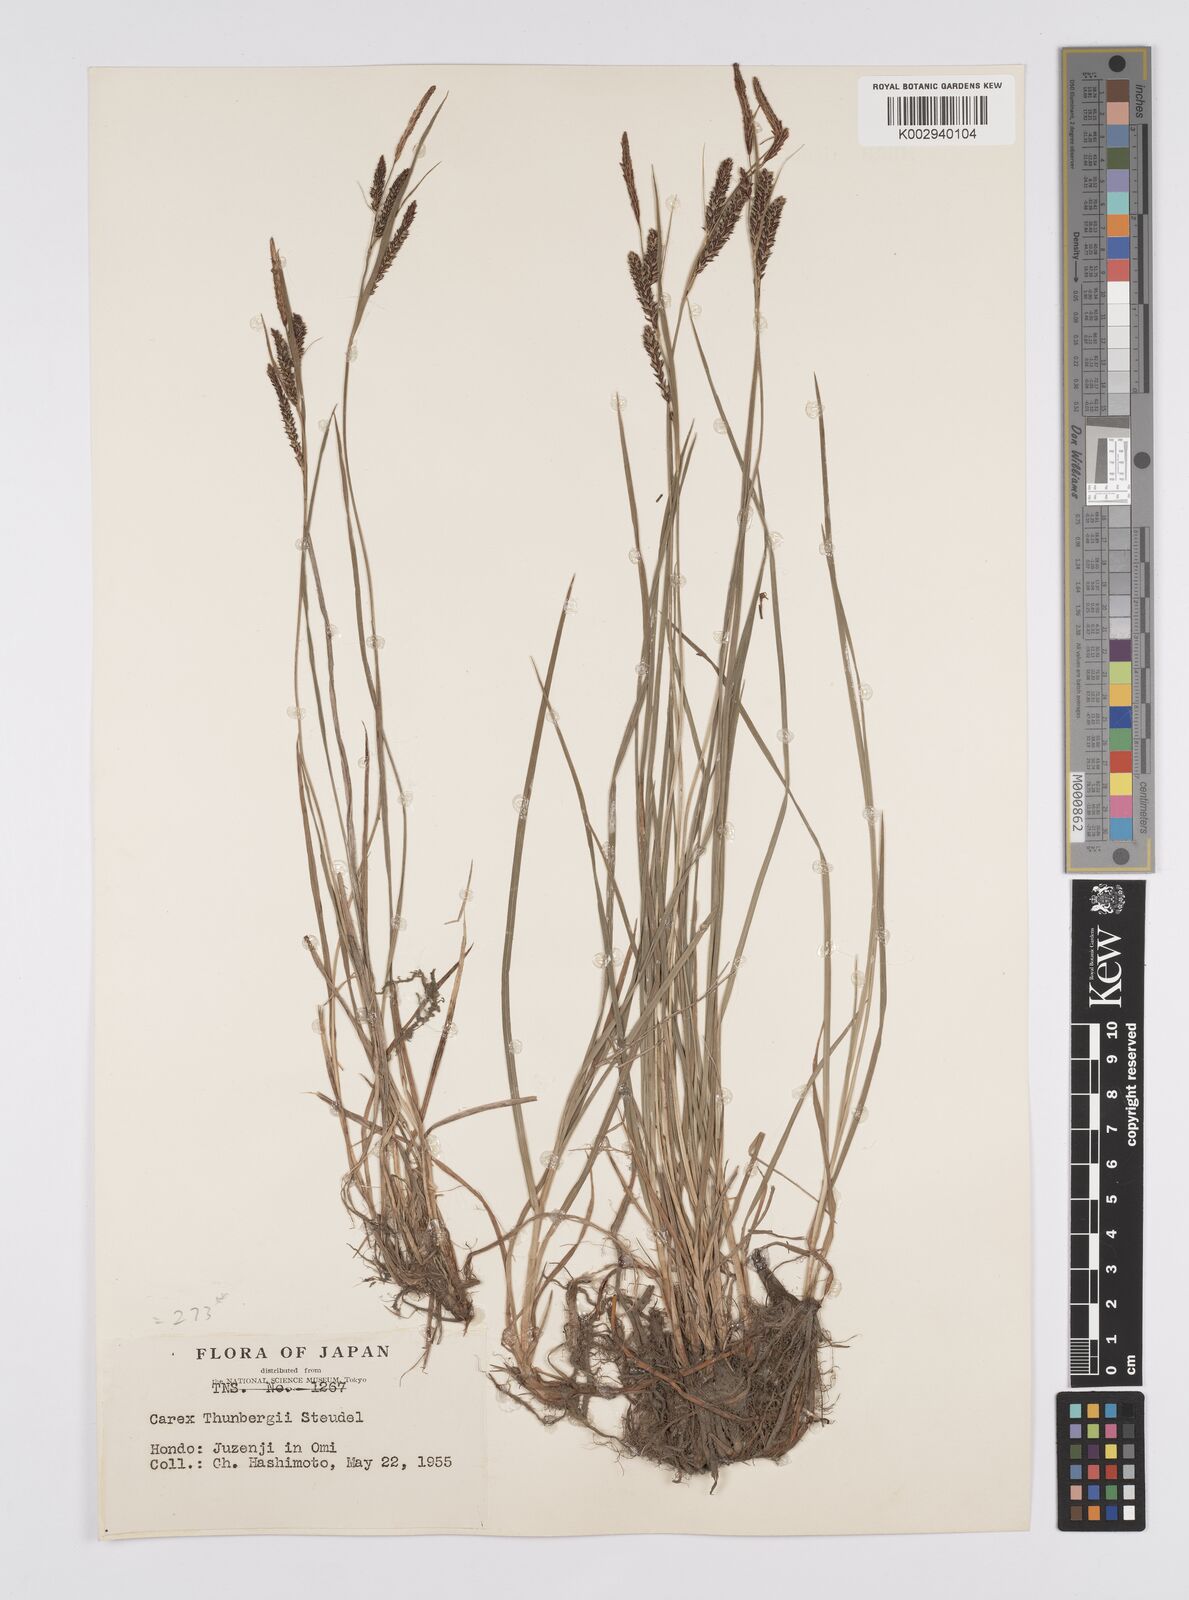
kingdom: Plantae
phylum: Tracheophyta
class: Liliopsida
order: Poales
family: Cyperaceae
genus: Carex
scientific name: Carex thunbergii
